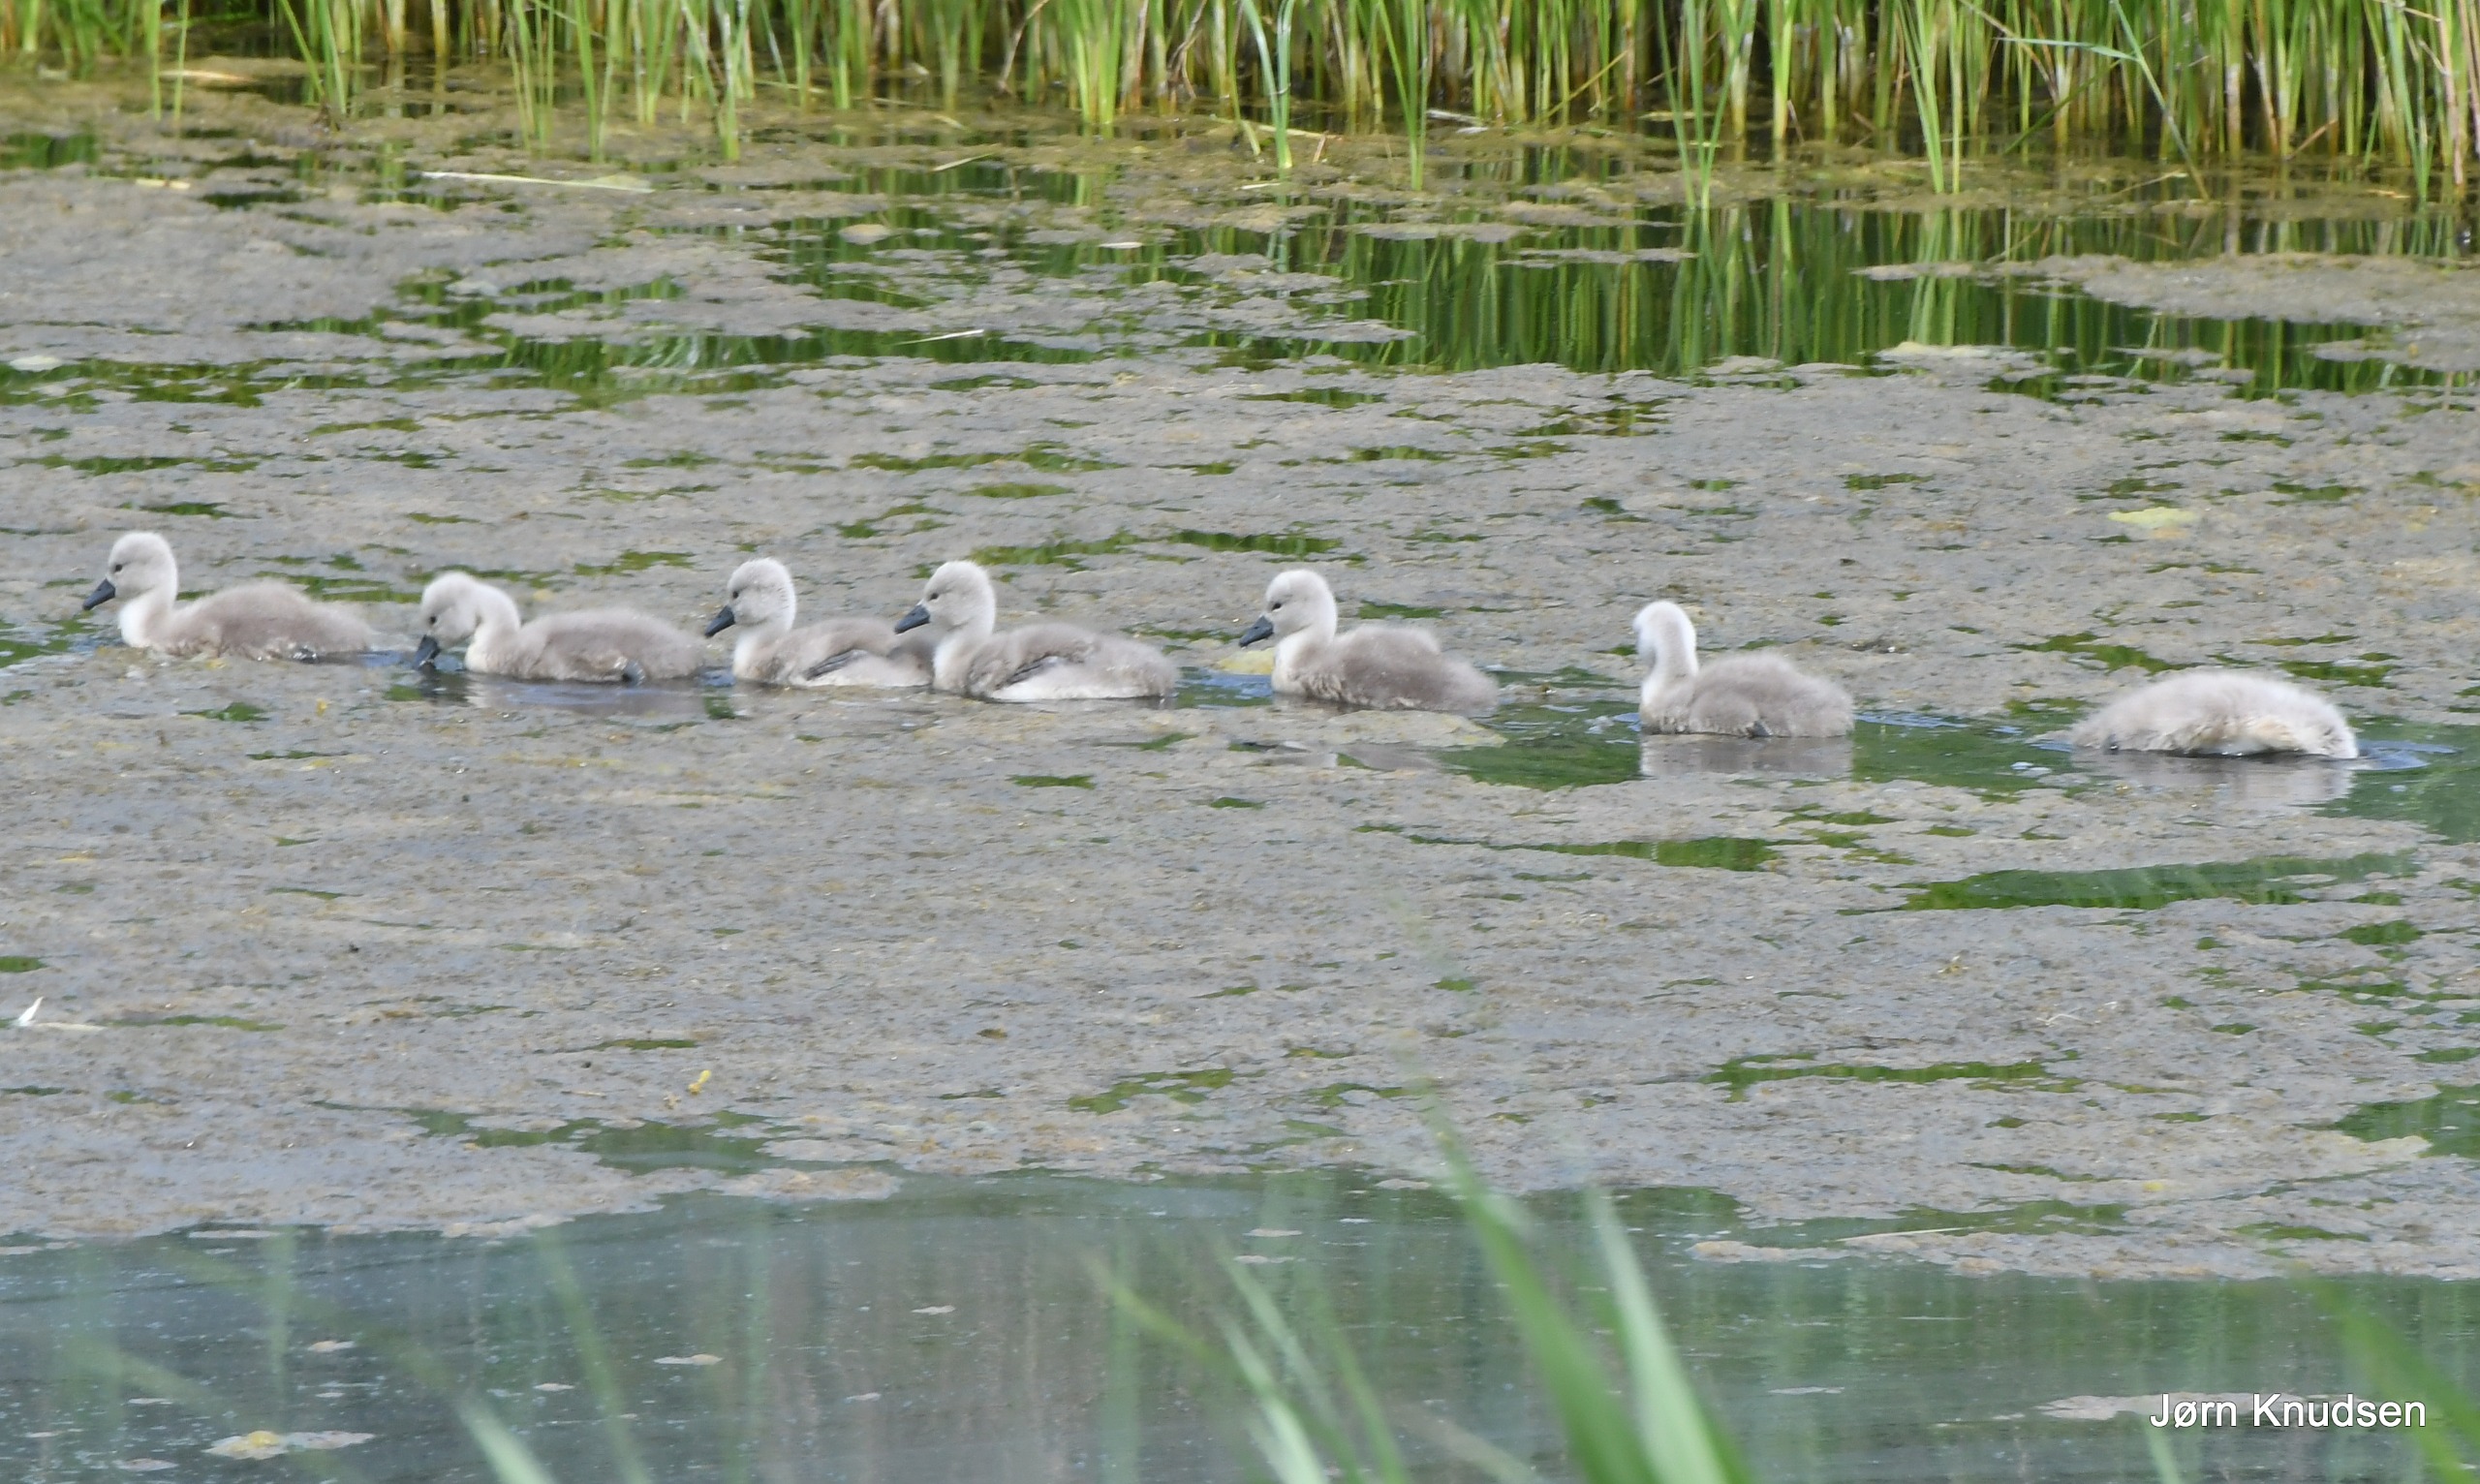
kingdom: Animalia
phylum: Chordata
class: Aves
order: Anseriformes
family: Anatidae
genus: Cygnus
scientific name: Cygnus olor
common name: Knopsvane
